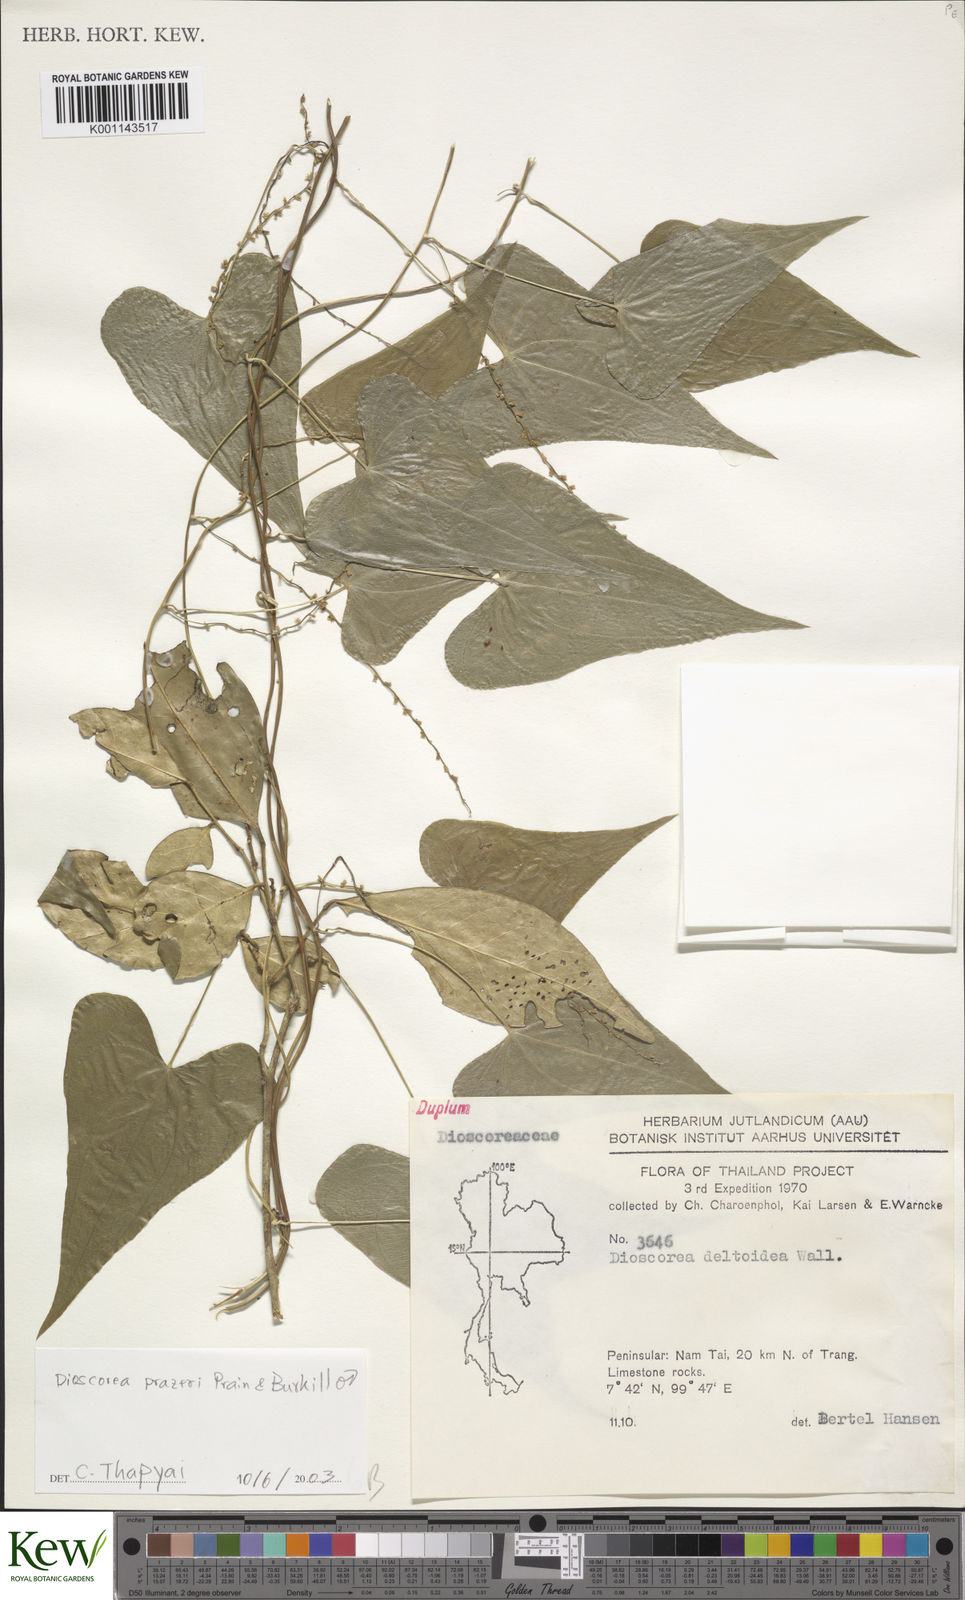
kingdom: Plantae
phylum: Tracheophyta
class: Liliopsida
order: Dioscoreales
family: Dioscoreaceae
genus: Dioscorea
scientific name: Dioscorea prazeri
